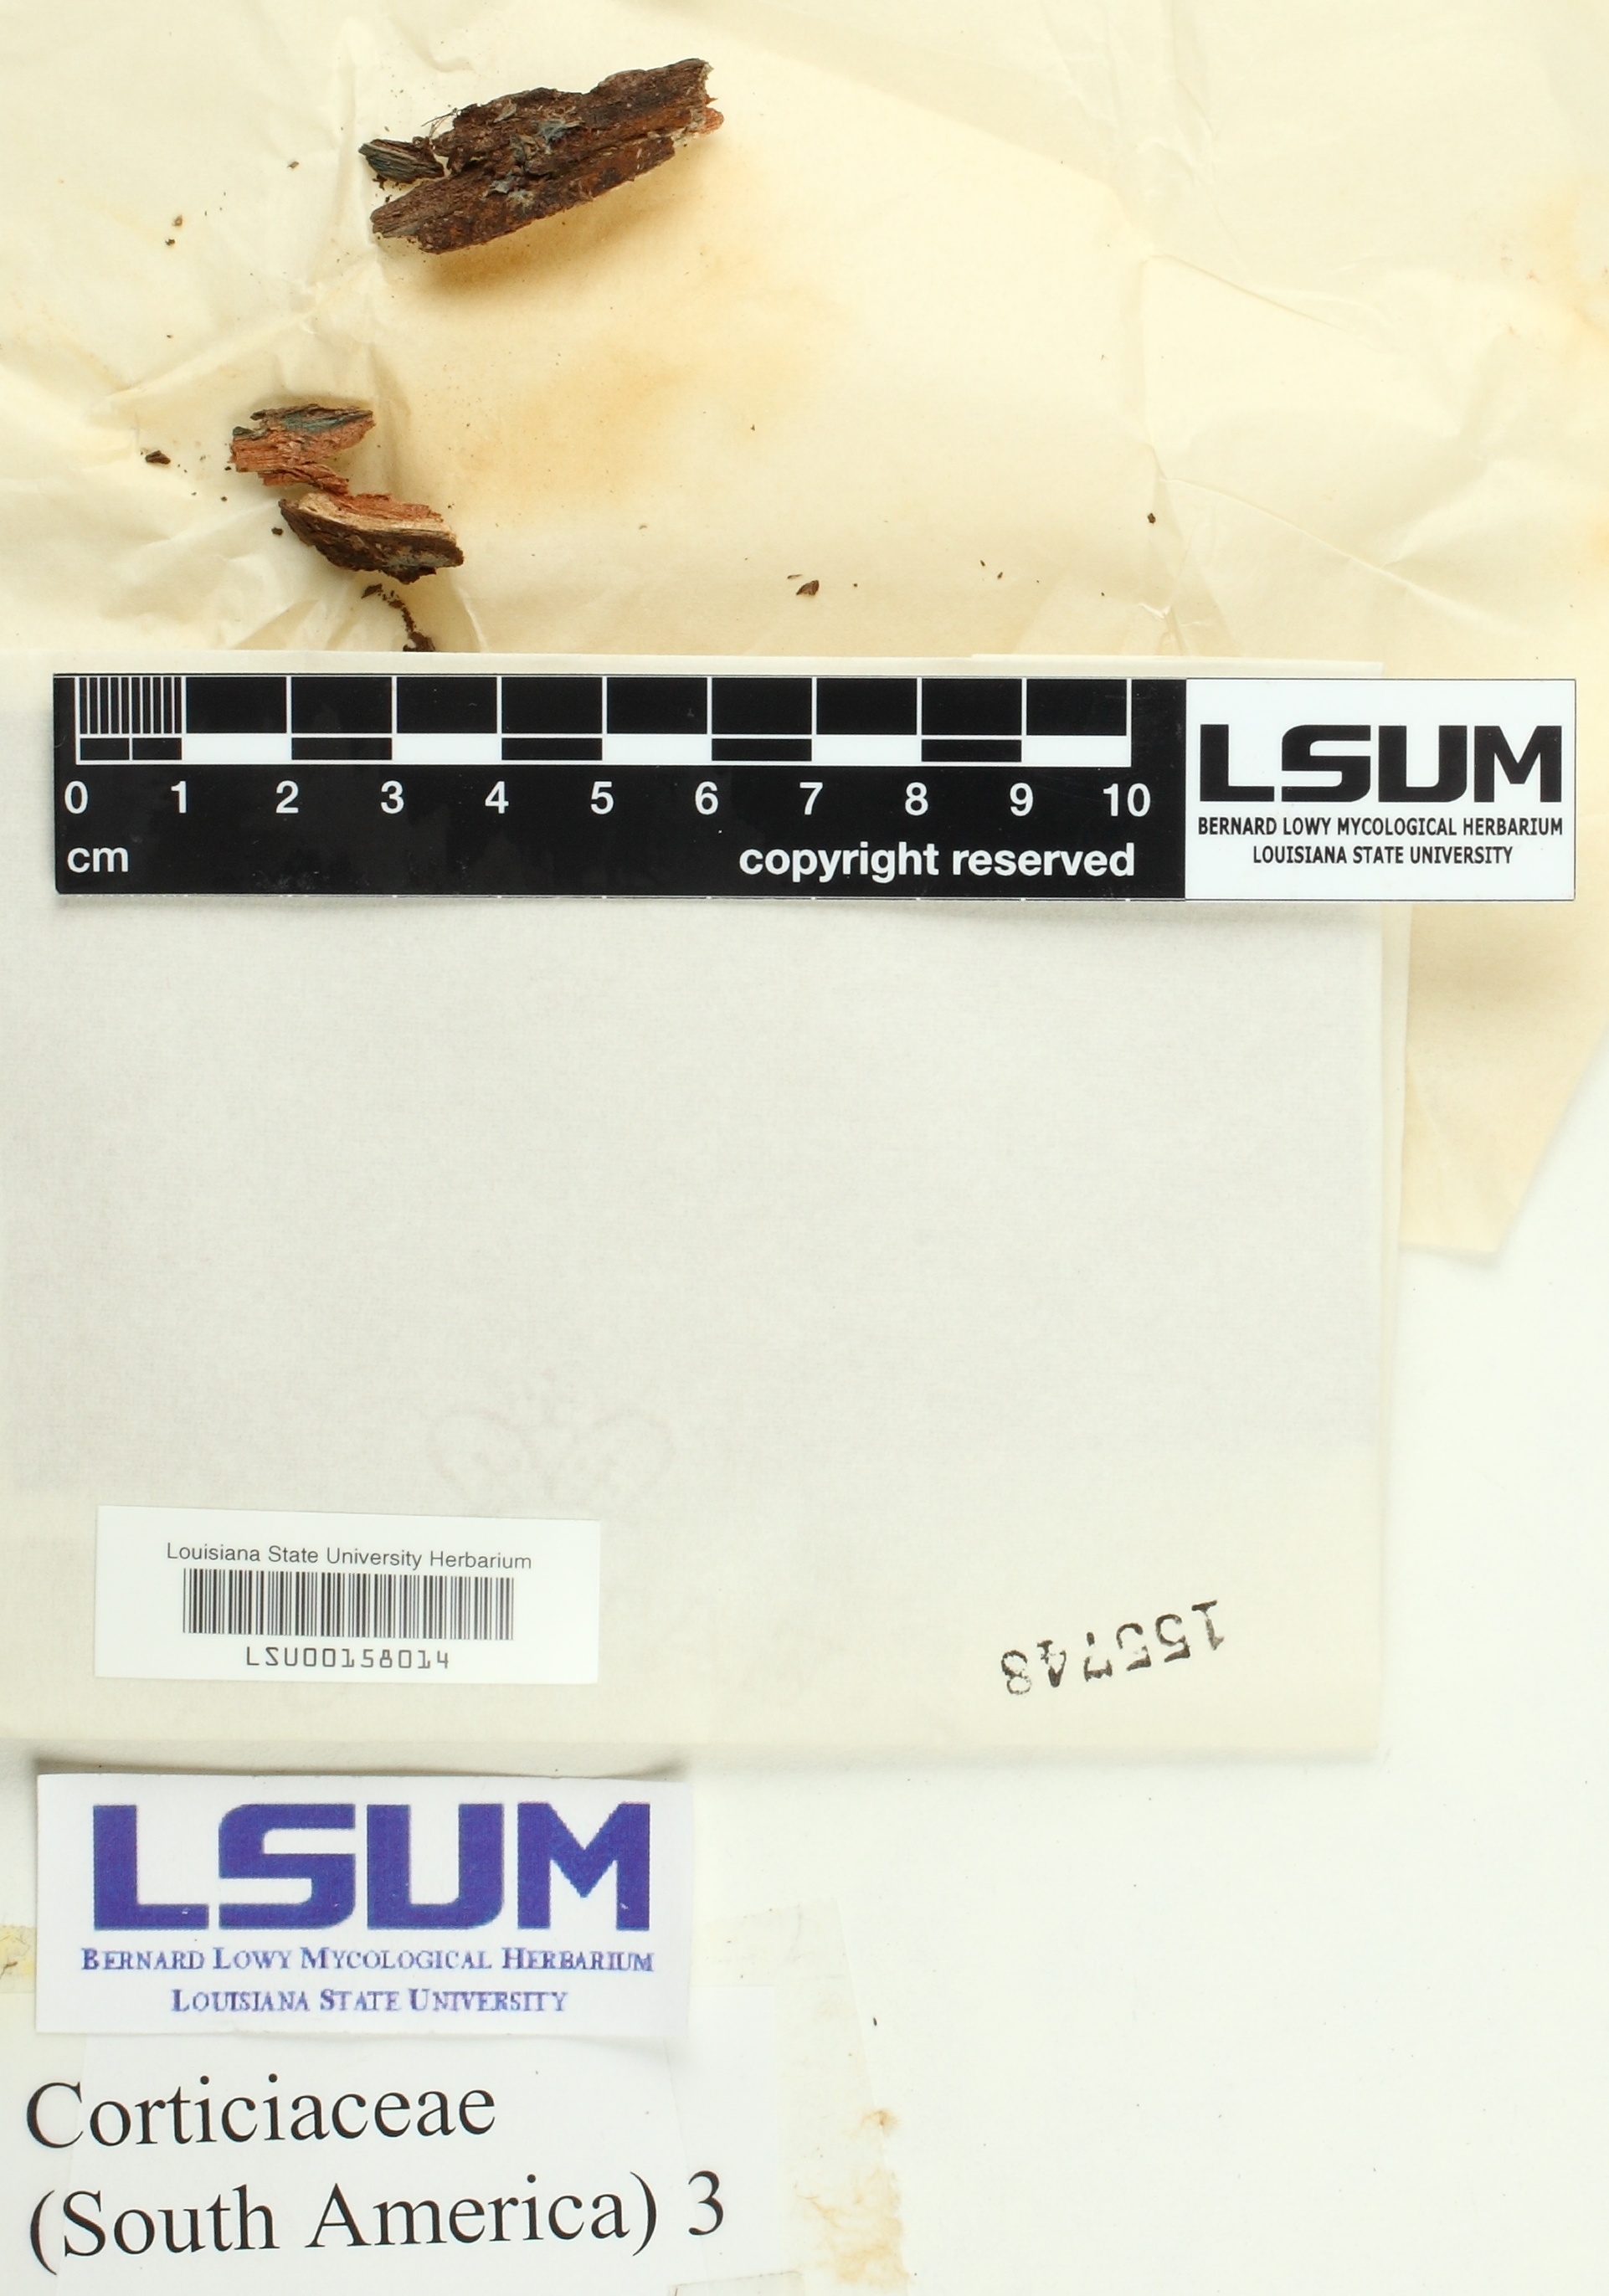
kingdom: Fungi
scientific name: Fungi
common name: Fungi
